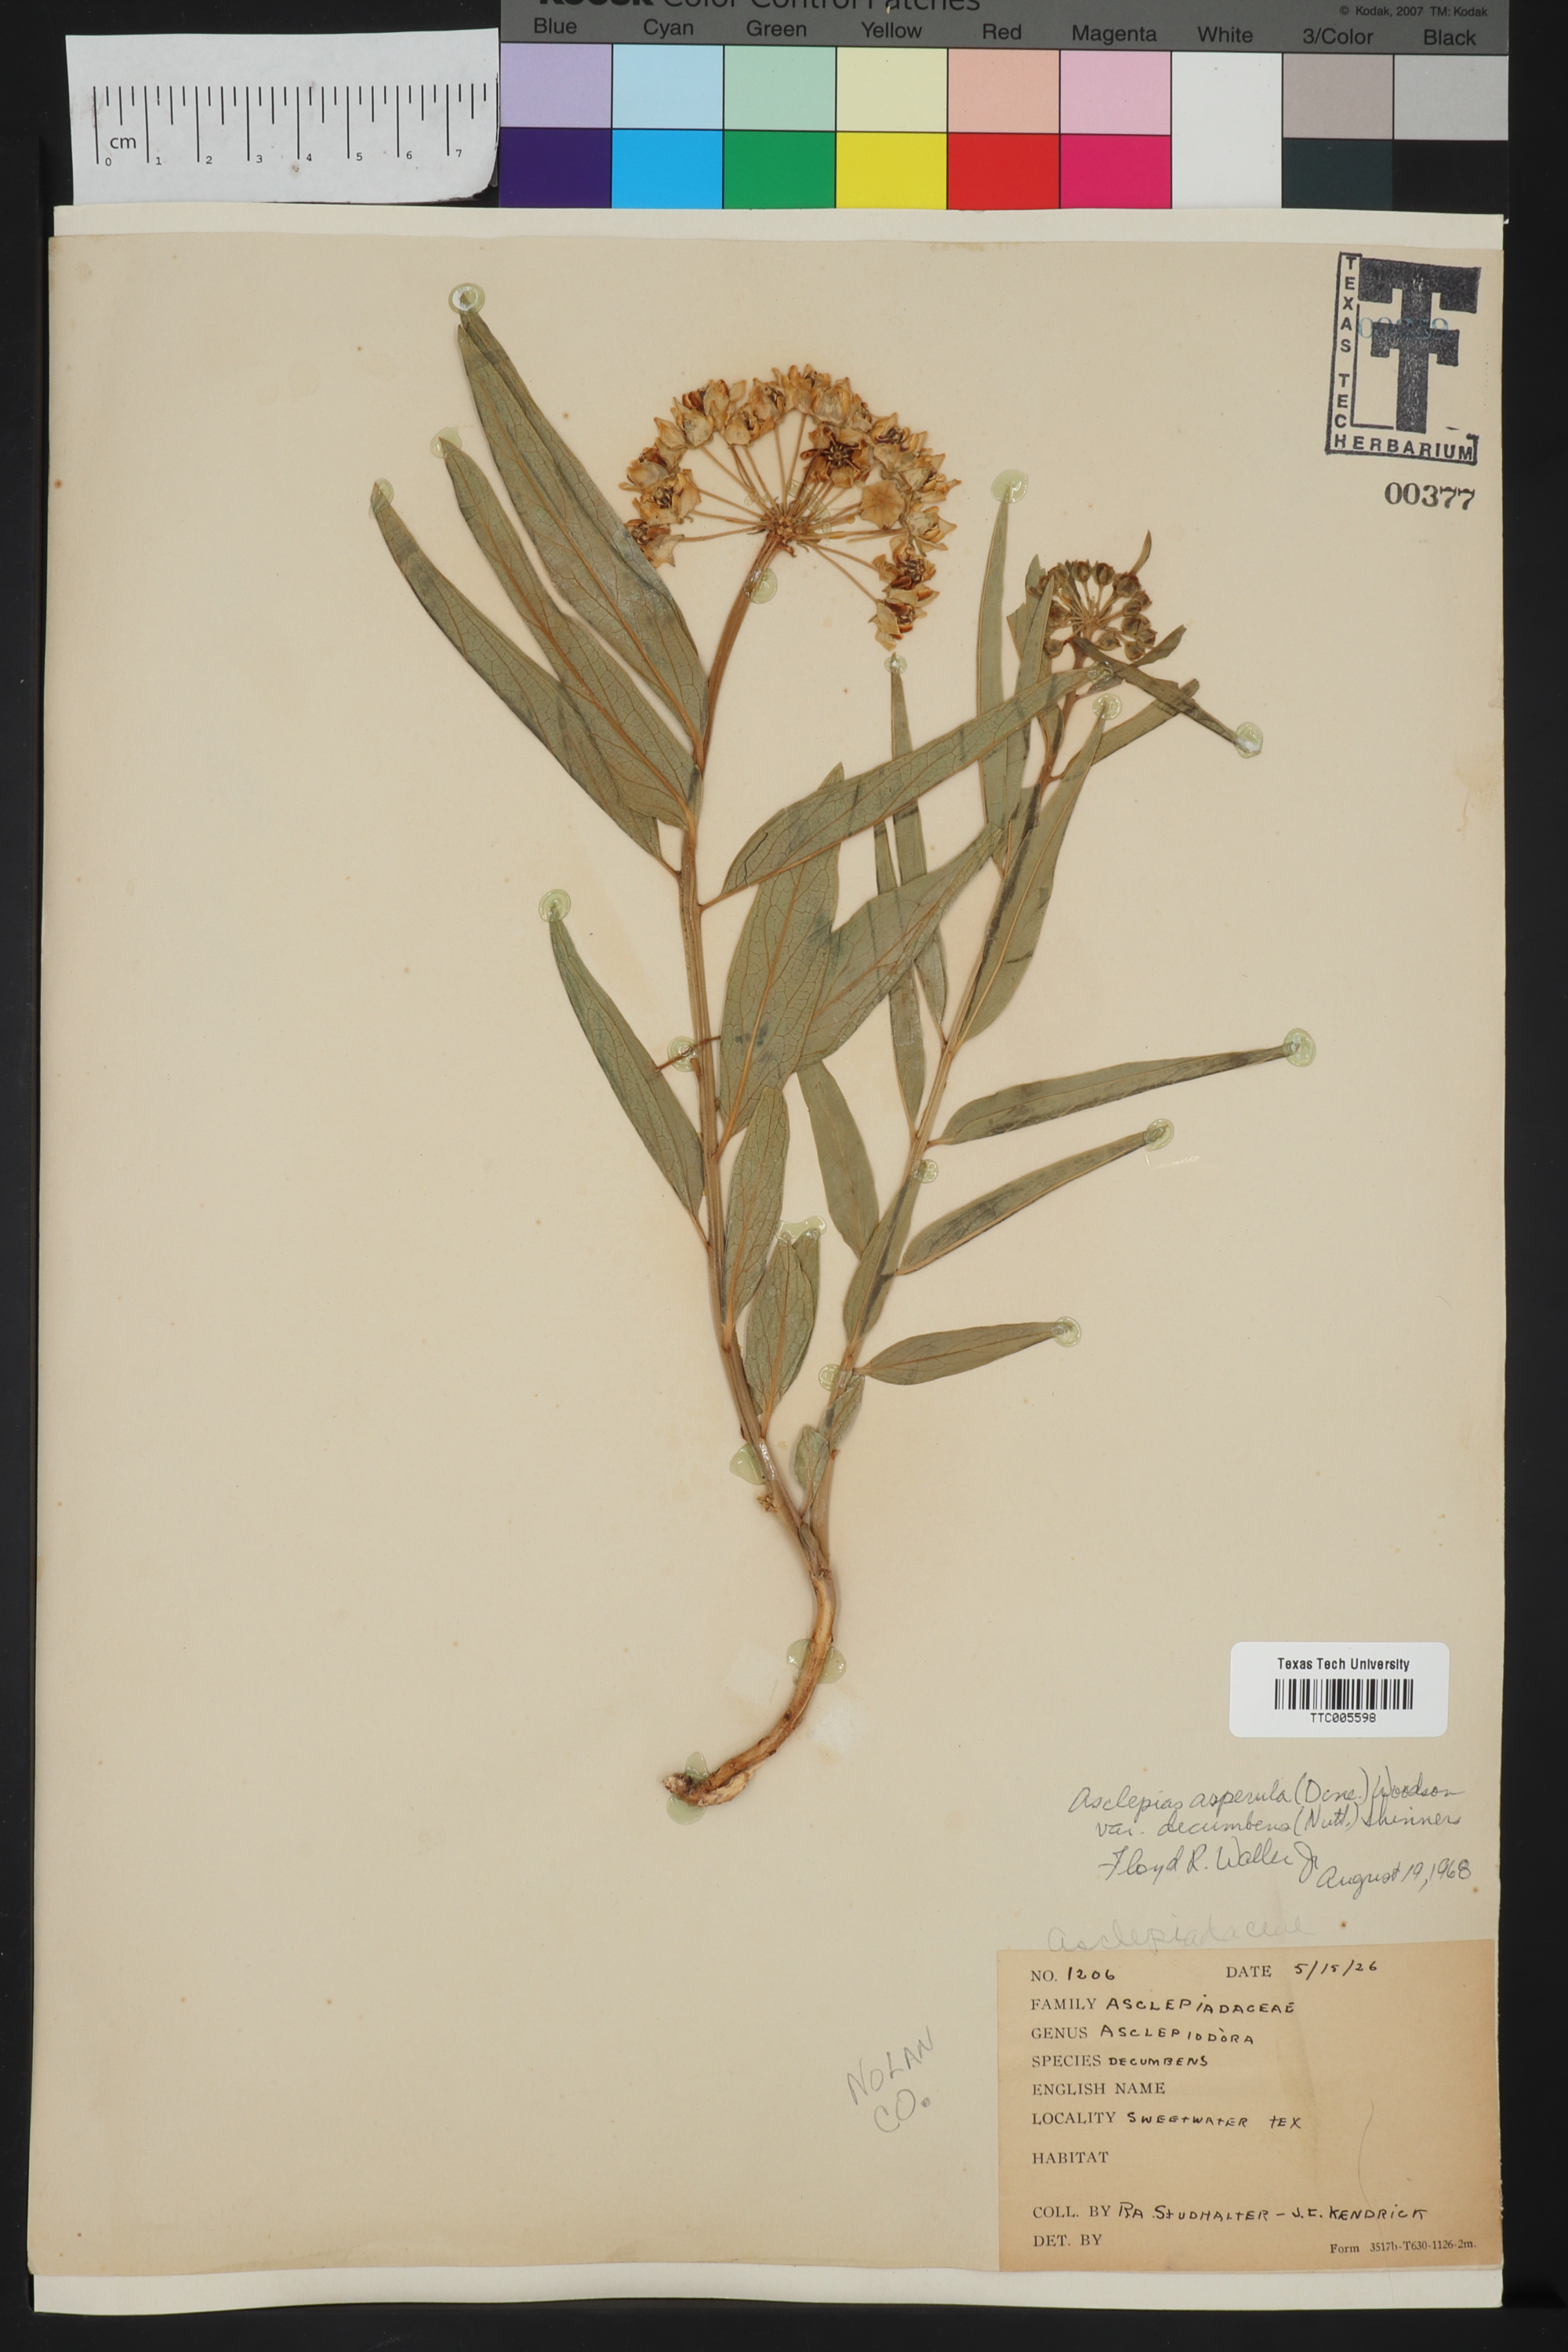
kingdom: Plantae
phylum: Tracheophyta
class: Magnoliopsida
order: Gentianales
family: Apocynaceae
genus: Asclepias
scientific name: Asclepias asperula
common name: Antelope horns
